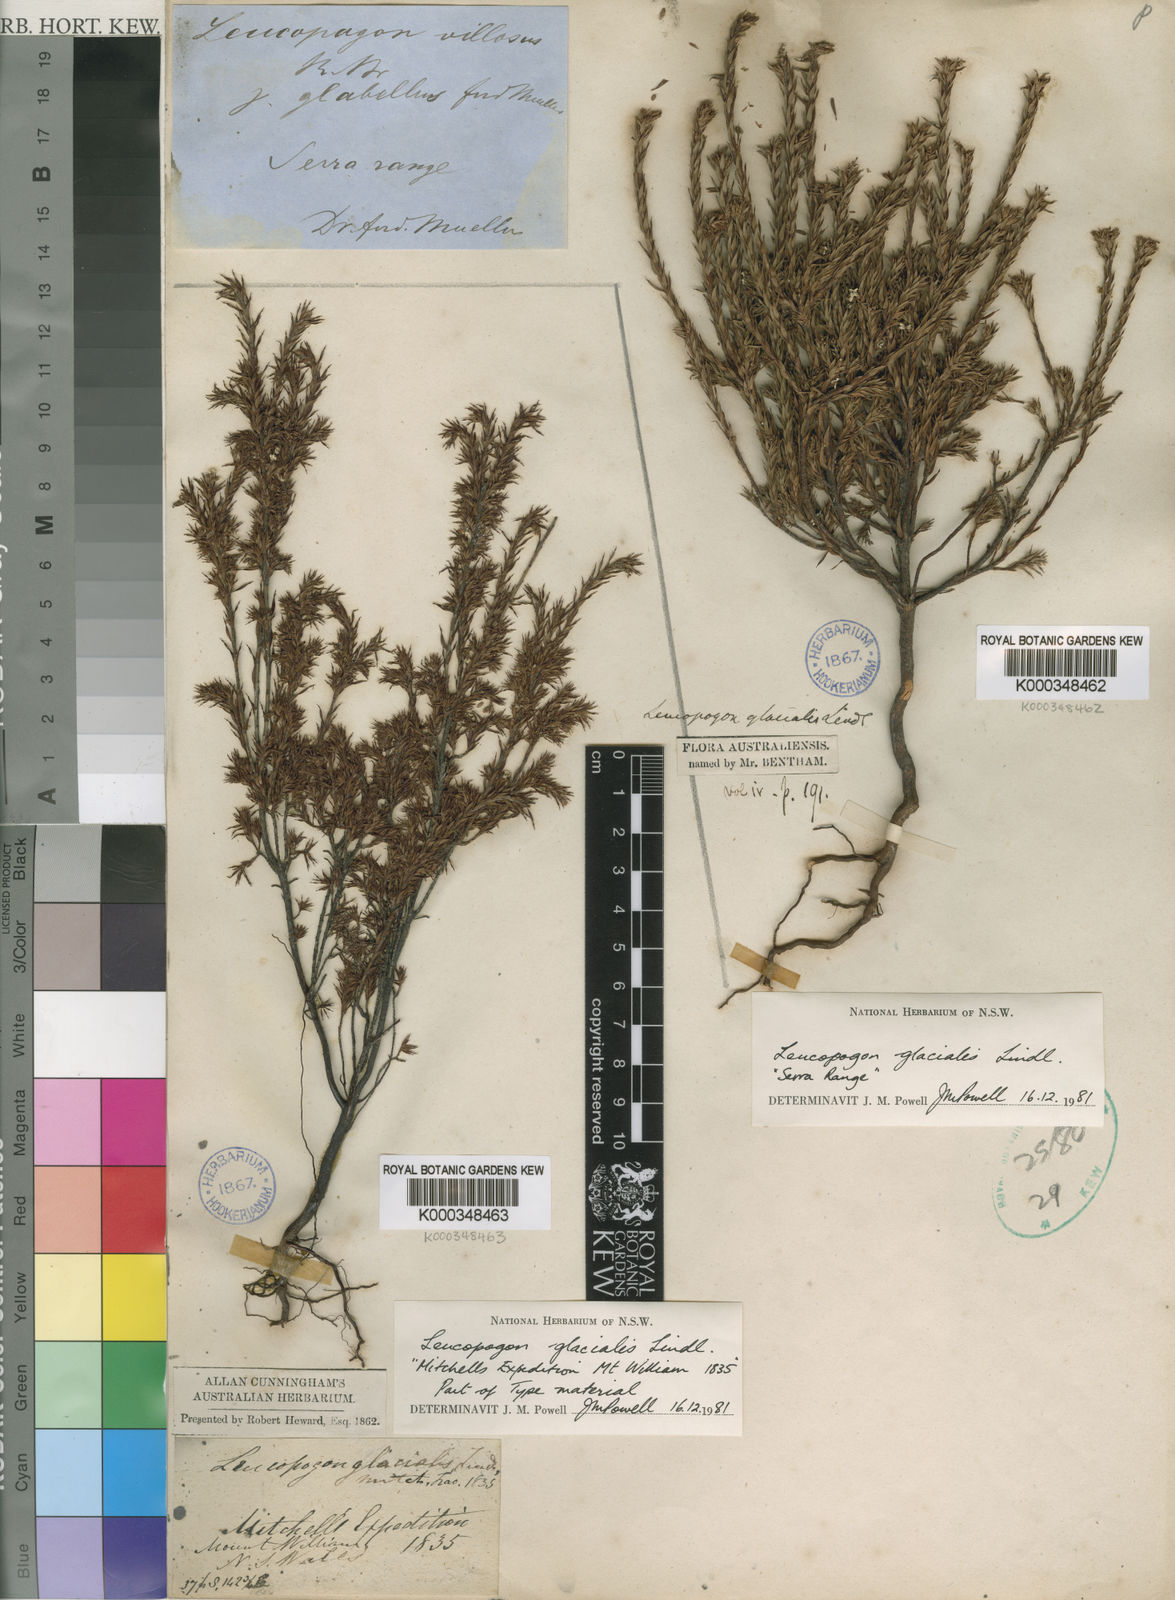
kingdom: Plantae
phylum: Tracheophyta
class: Magnoliopsida
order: Ericales
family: Ericaceae
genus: Leucopogon
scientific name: Leucopogon glacialis
